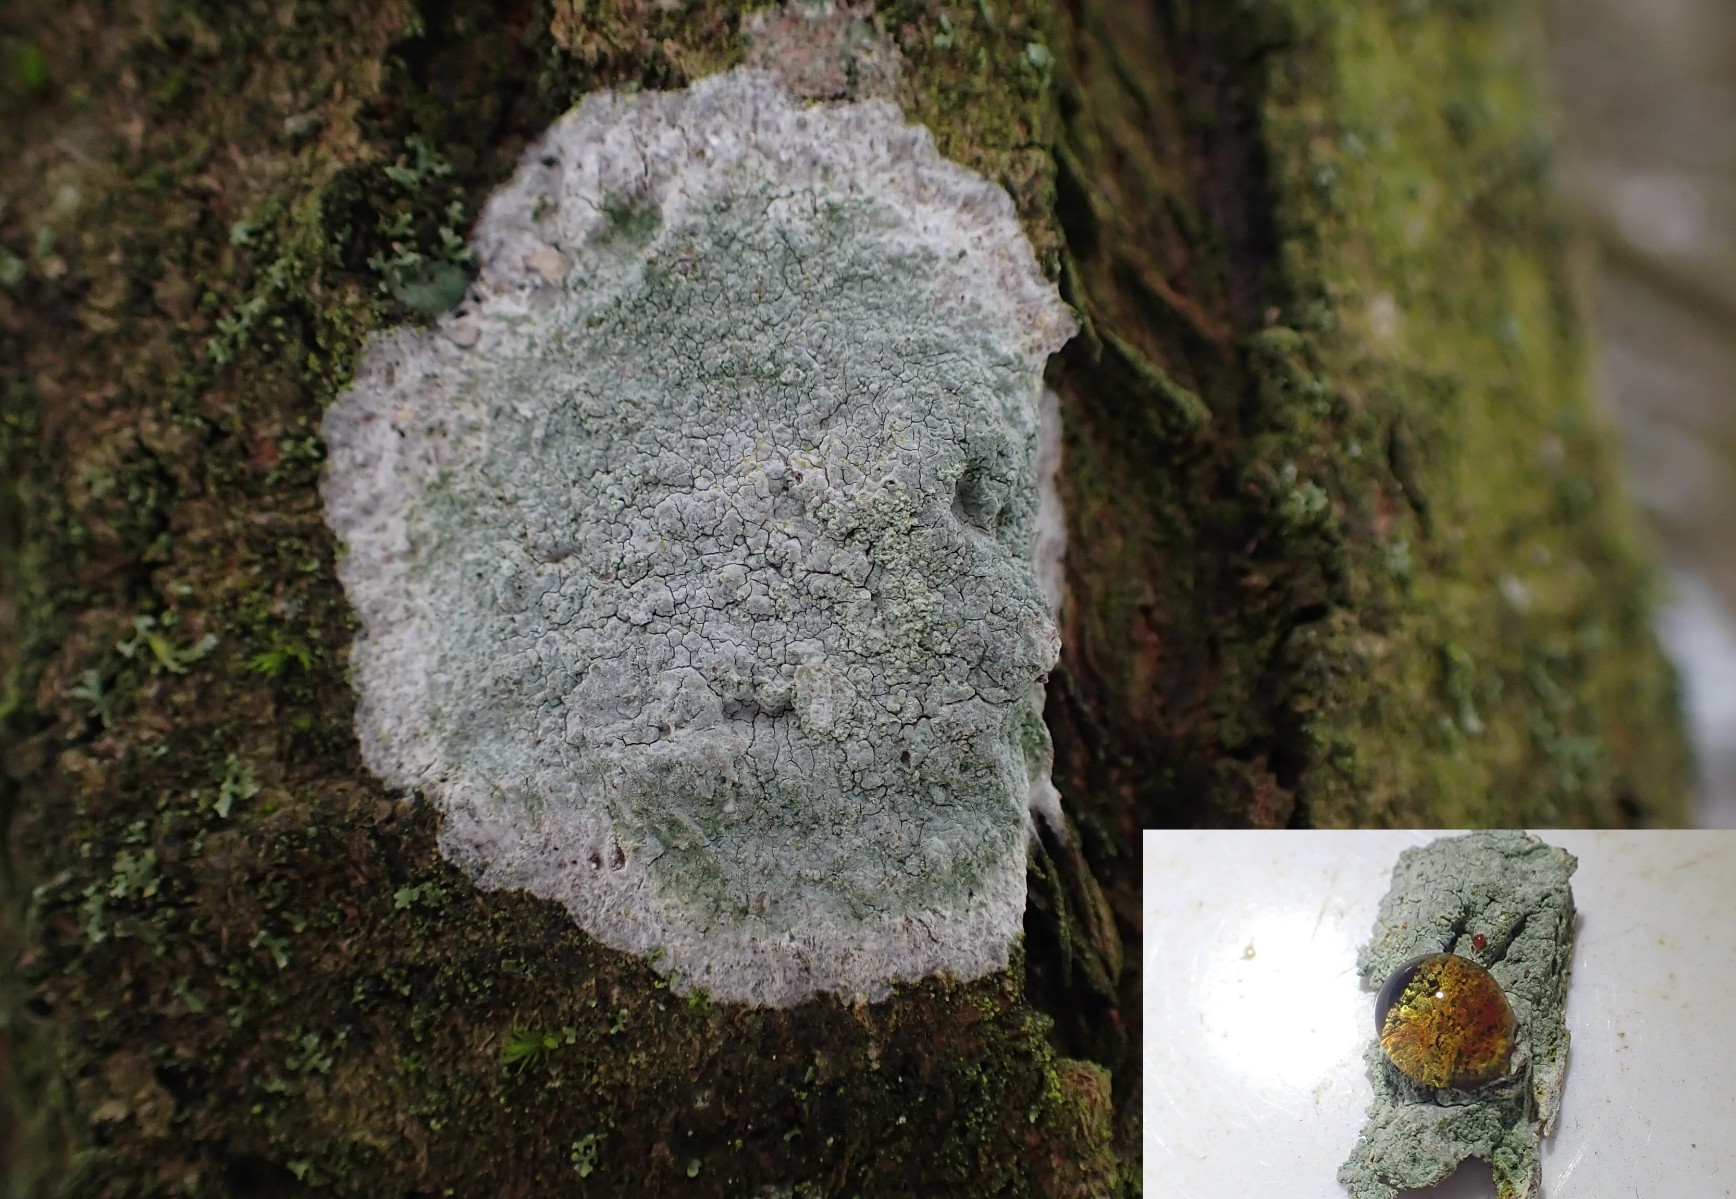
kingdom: Fungi
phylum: Ascomycota
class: Lecanoromycetes
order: Ostropales
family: Phlyctidaceae
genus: Phlyctis
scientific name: Phlyctis argena
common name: almindelig sølvlav
